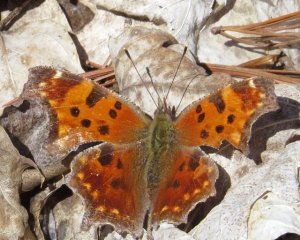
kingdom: Animalia
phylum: Arthropoda
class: Insecta
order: Lepidoptera
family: Nymphalidae
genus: Polygonia
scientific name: Polygonia comma
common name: Eastern Comma
